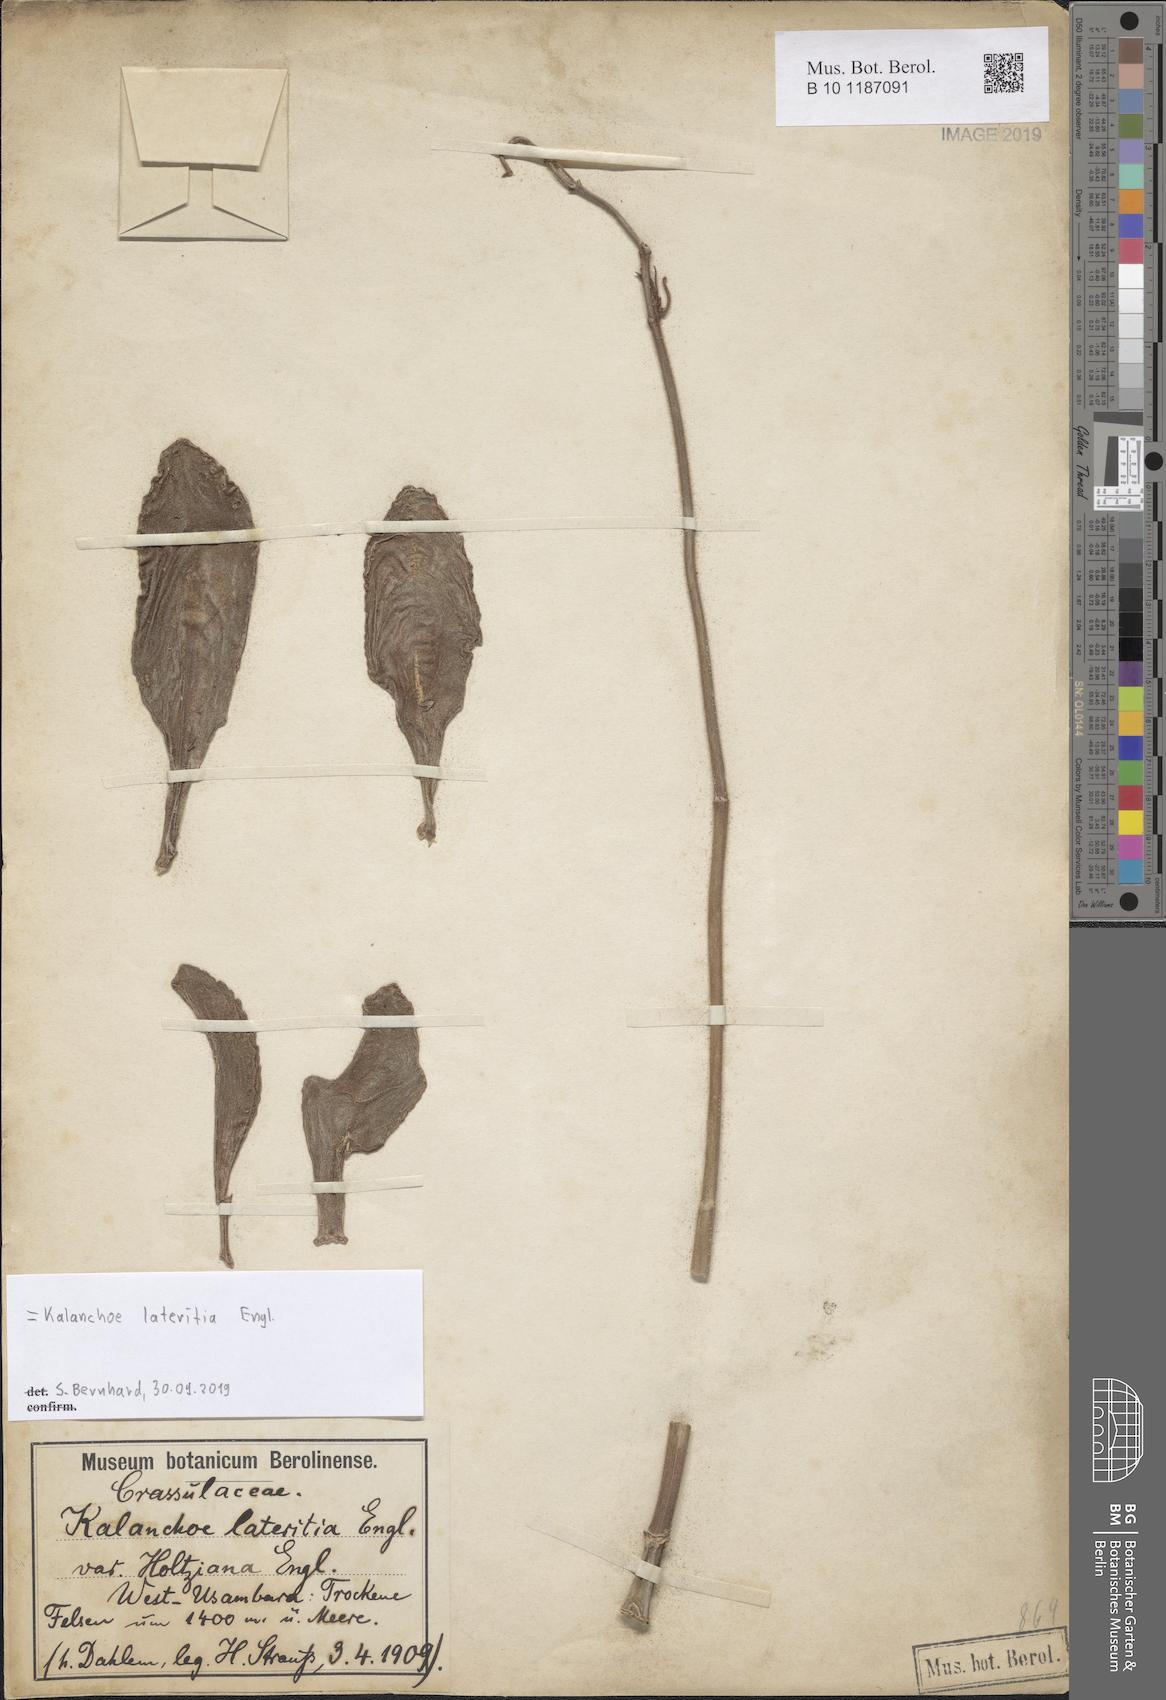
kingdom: Plantae
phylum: Tracheophyta
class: Magnoliopsida
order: Saxifragales
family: Crassulaceae
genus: Kalanchoe
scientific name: Kalanchoe lateritia
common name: Kalanchoe
